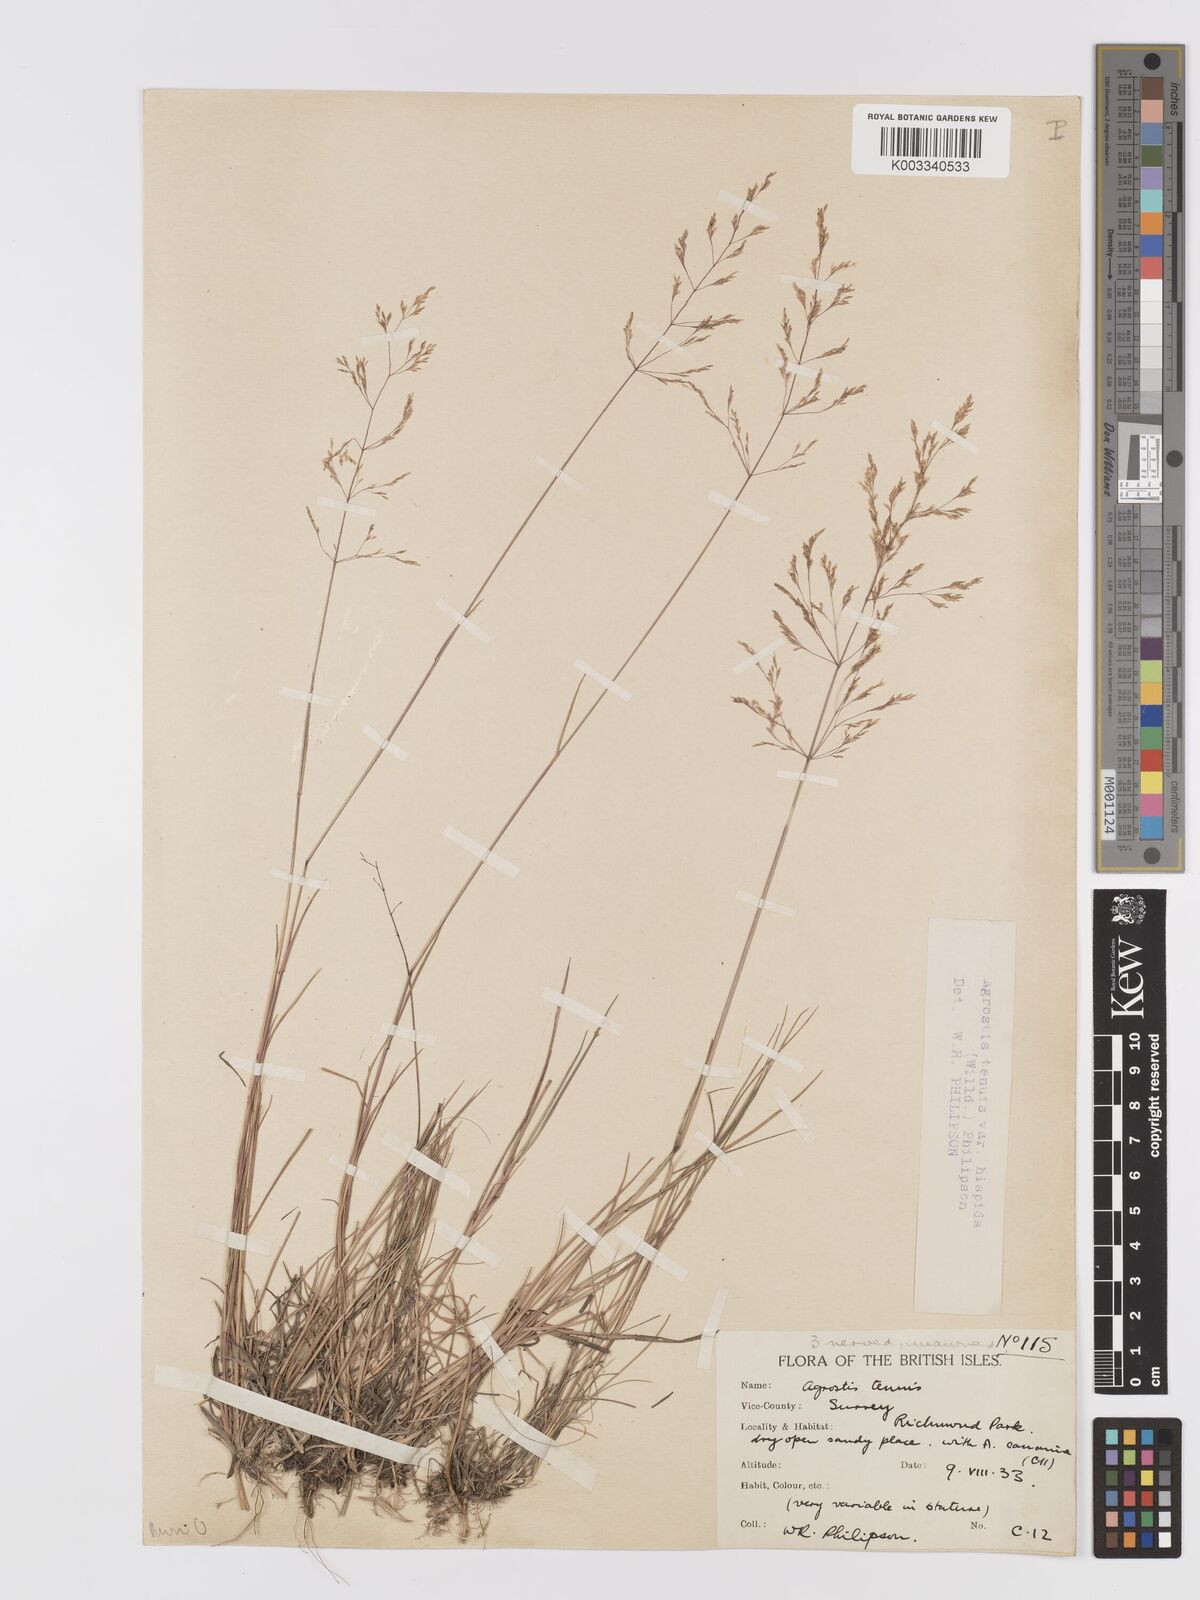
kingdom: Plantae
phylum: Tracheophyta
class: Liliopsida
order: Poales
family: Poaceae
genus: Agrostis
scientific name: Agrostis capillaris
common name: Colonial bentgrass
